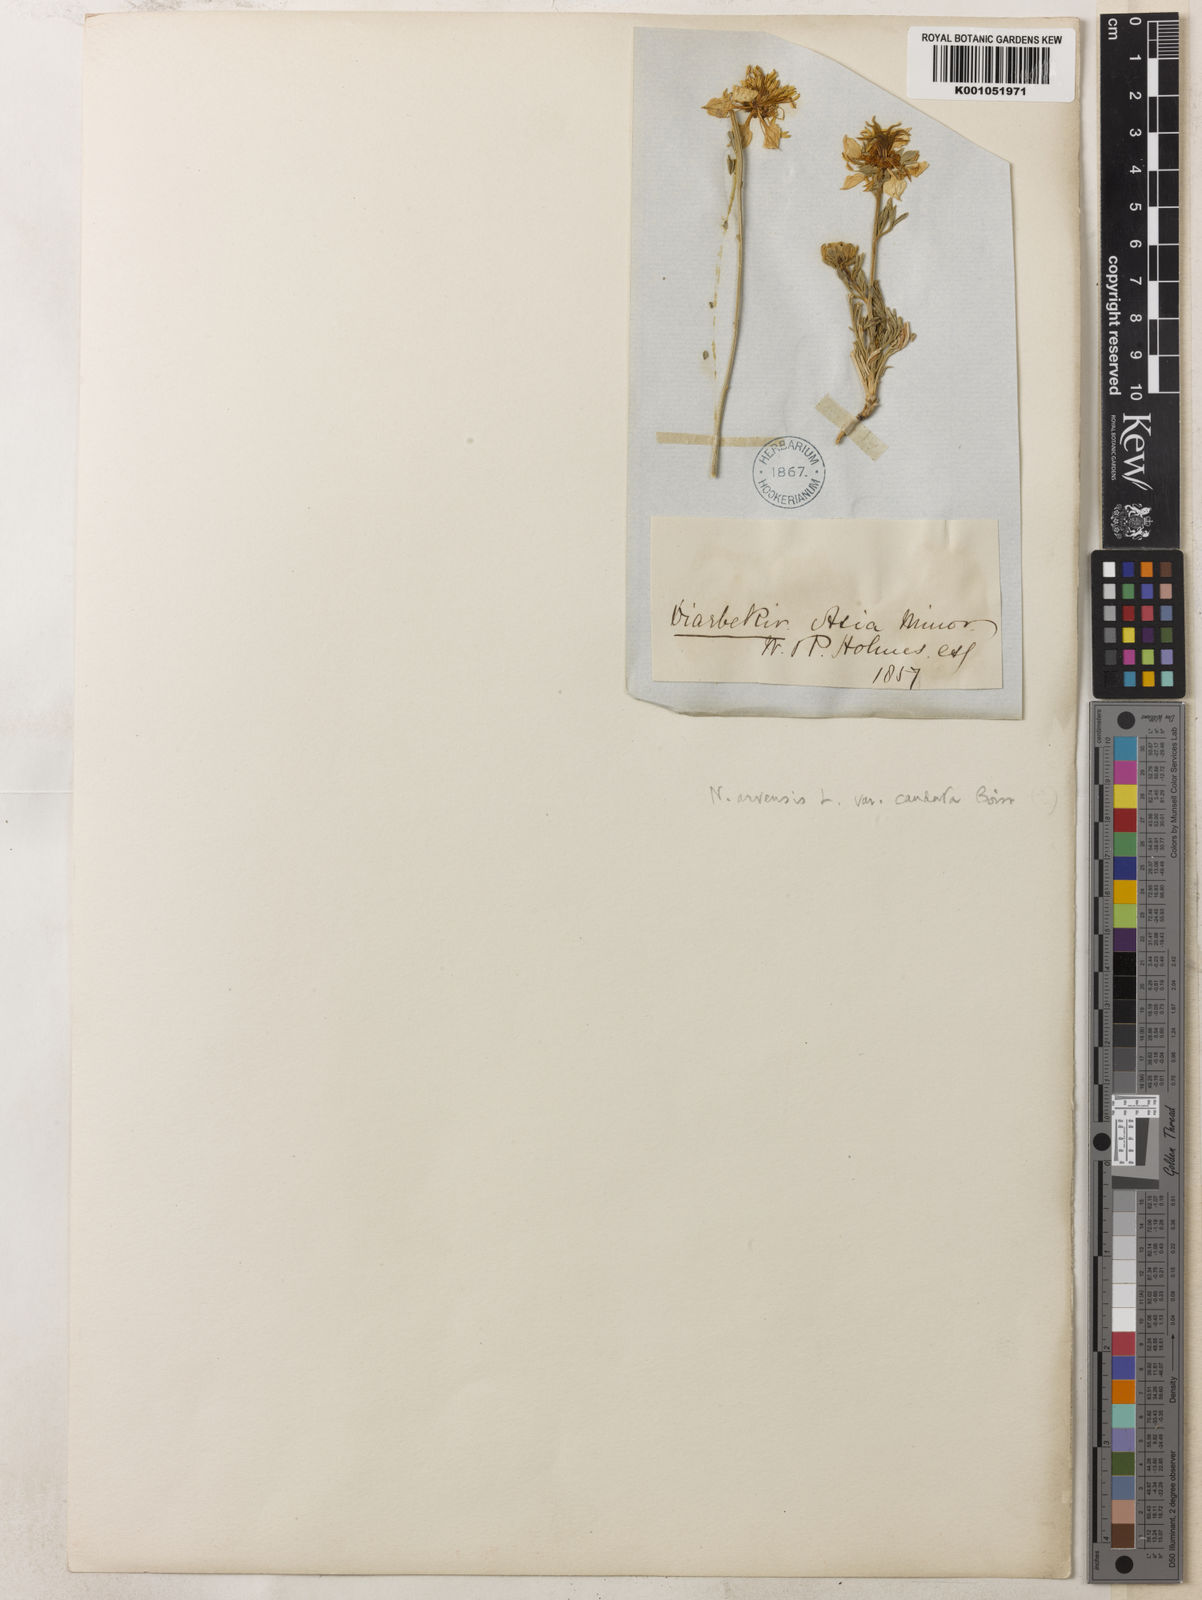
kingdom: Plantae
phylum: Tracheophyta
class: Magnoliopsida
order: Ranunculales
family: Ranunculaceae
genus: Nigella
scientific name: Nigella arvensis
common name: Wild fennel-flower
